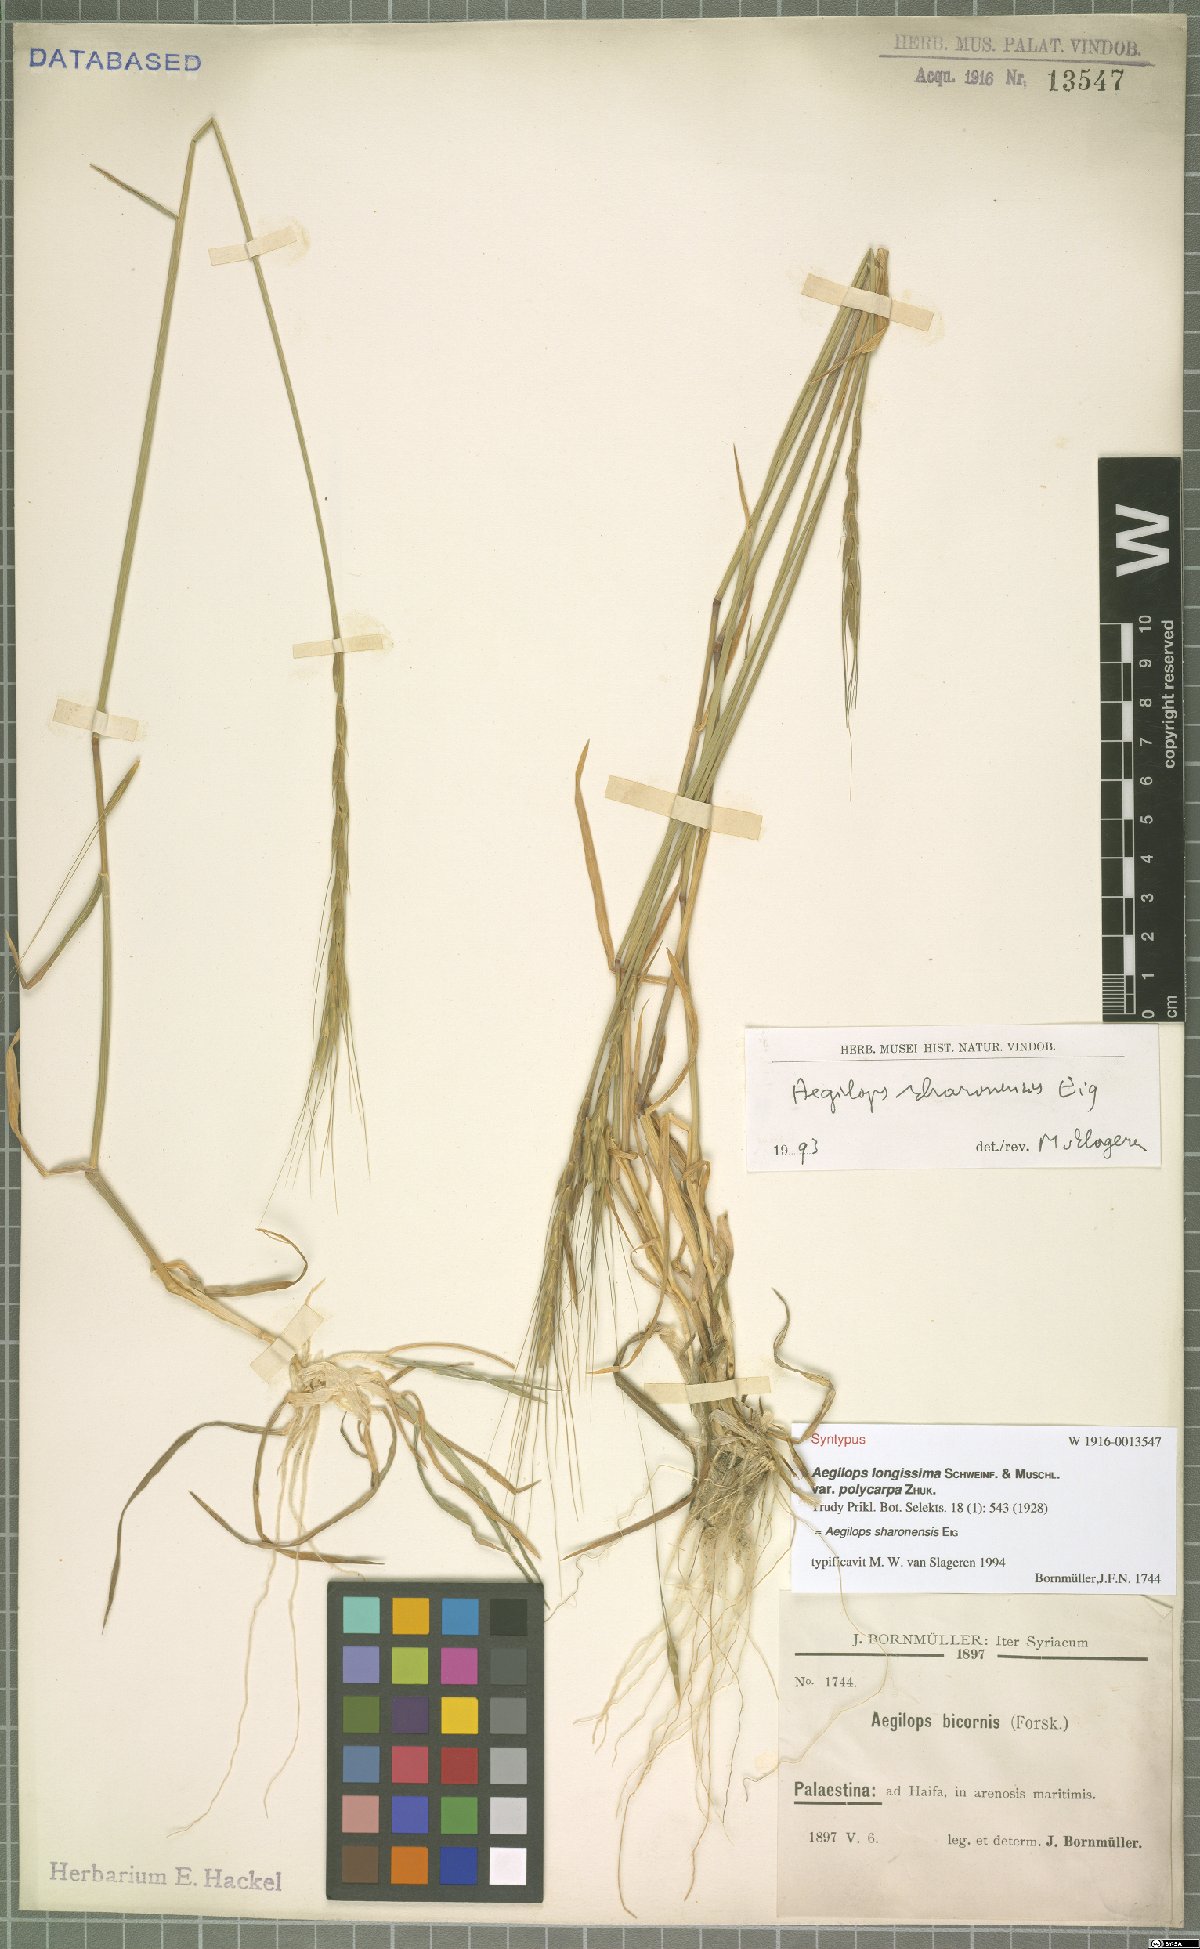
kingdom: Plantae
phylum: Tracheophyta
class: Liliopsida
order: Poales
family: Poaceae
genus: Aegilops
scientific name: Aegilops sharonensis
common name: Sharon goatgrass
